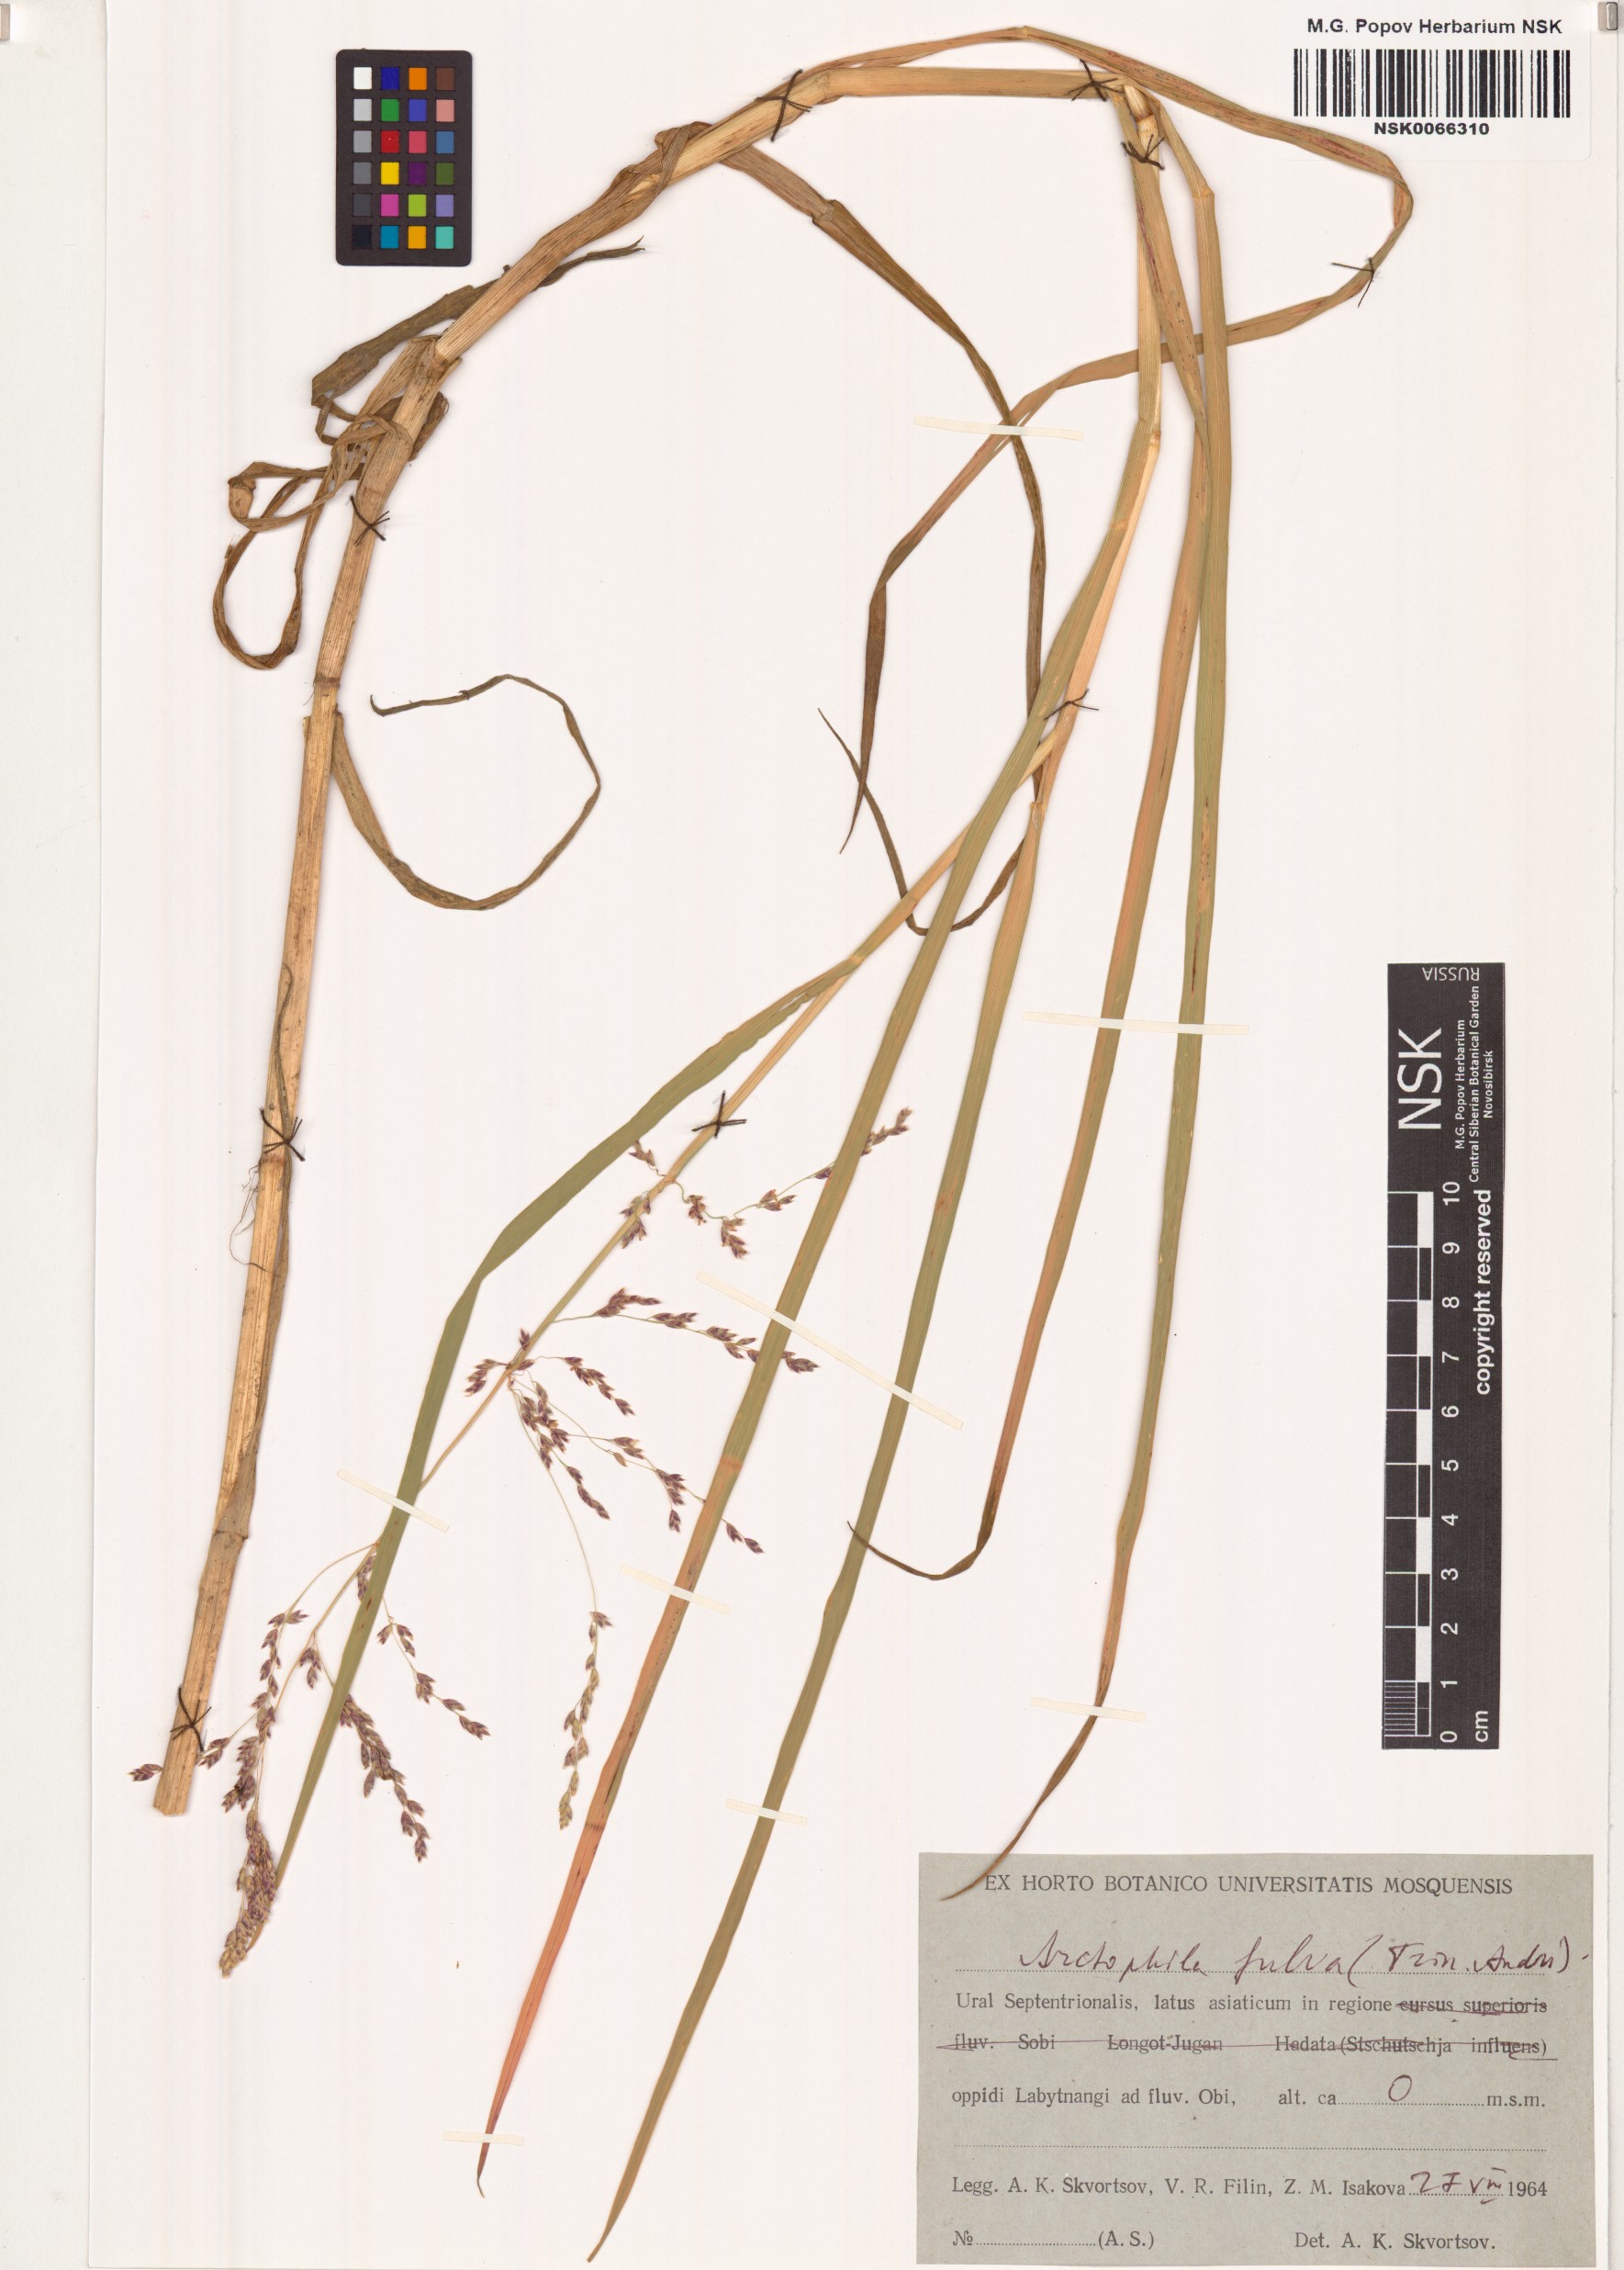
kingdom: Plantae
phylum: Tracheophyta
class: Liliopsida
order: Poales
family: Poaceae
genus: Dupontia
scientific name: Dupontia fulva
